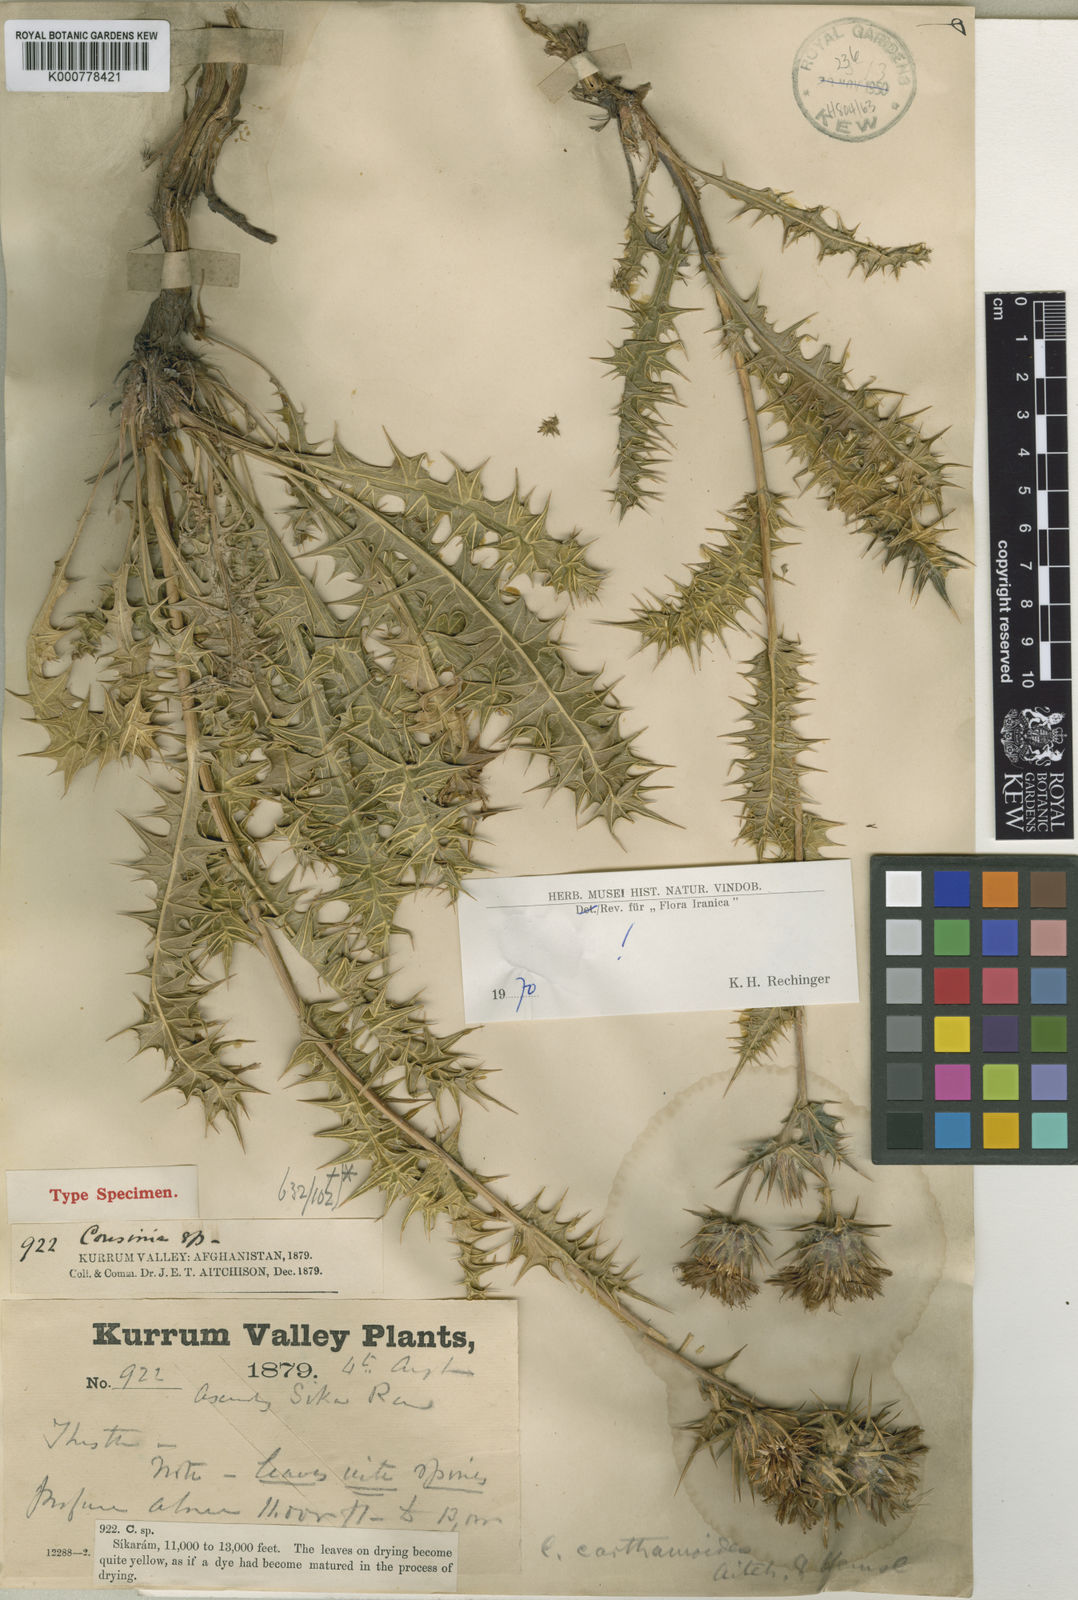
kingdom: Plantae
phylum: Tracheophyta
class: Magnoliopsida
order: Asterales
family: Asteraceae
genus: Cousinia
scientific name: Cousinia carthamoides
